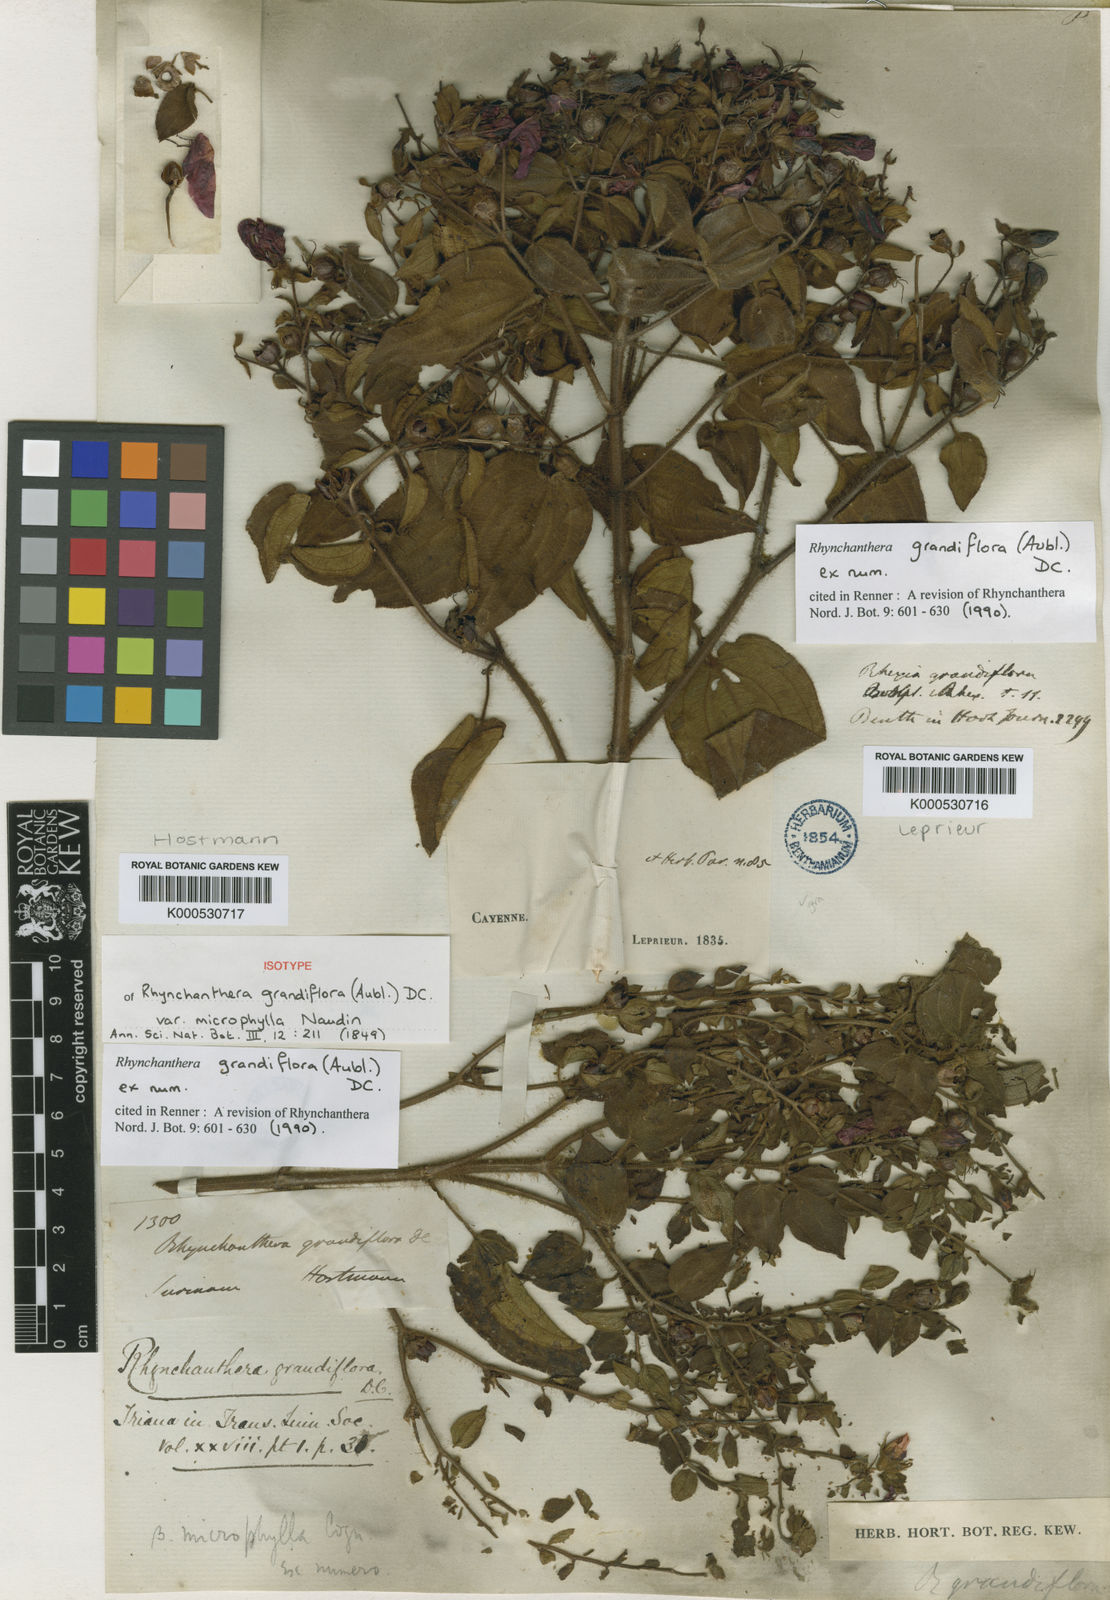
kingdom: Plantae
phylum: Tracheophyta
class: Magnoliopsida
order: Myrtales
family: Melastomataceae
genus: Rhynchanthera
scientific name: Rhynchanthera grandiflora
